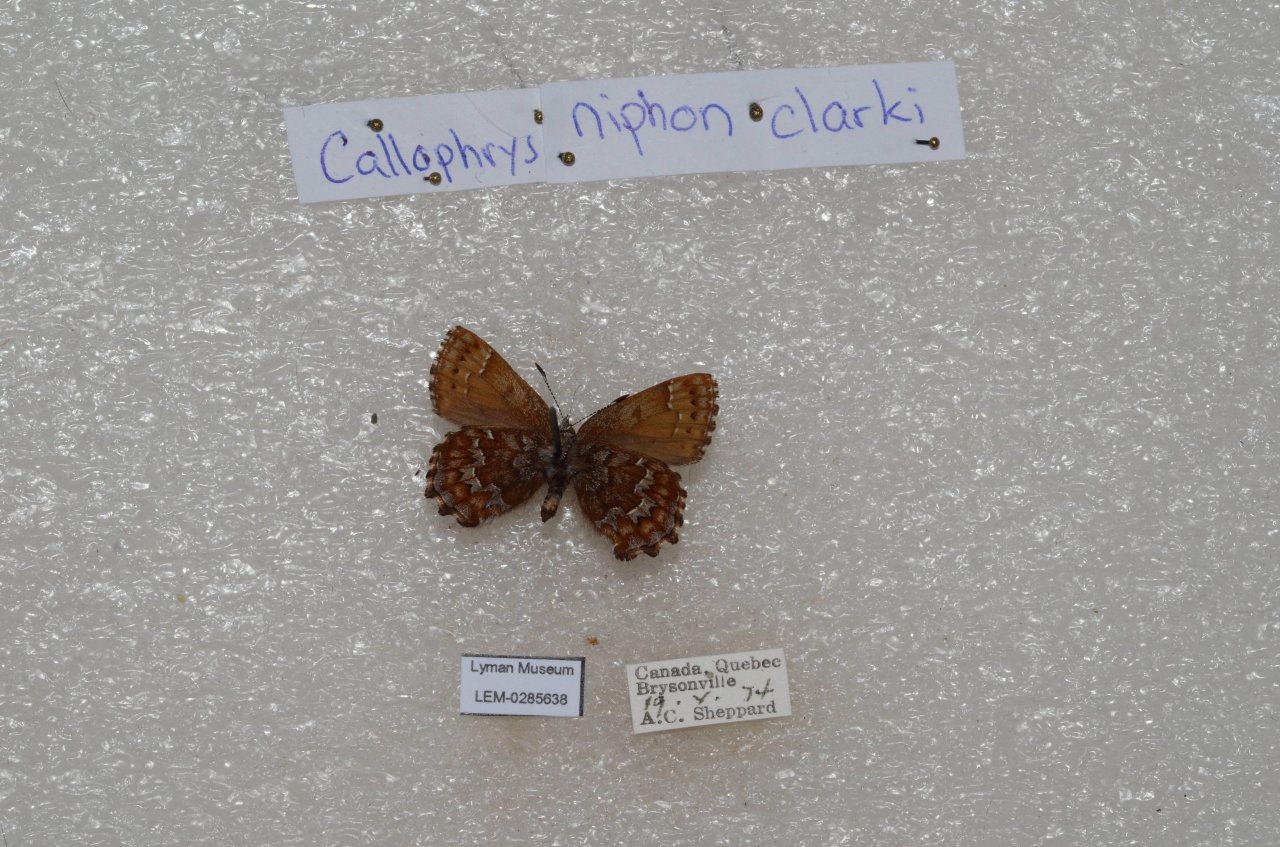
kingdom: Animalia
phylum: Arthropoda
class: Insecta
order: Lepidoptera
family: Lycaenidae
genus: Incisalia
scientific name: Incisalia niphon
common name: Eastern Pine Elfin
